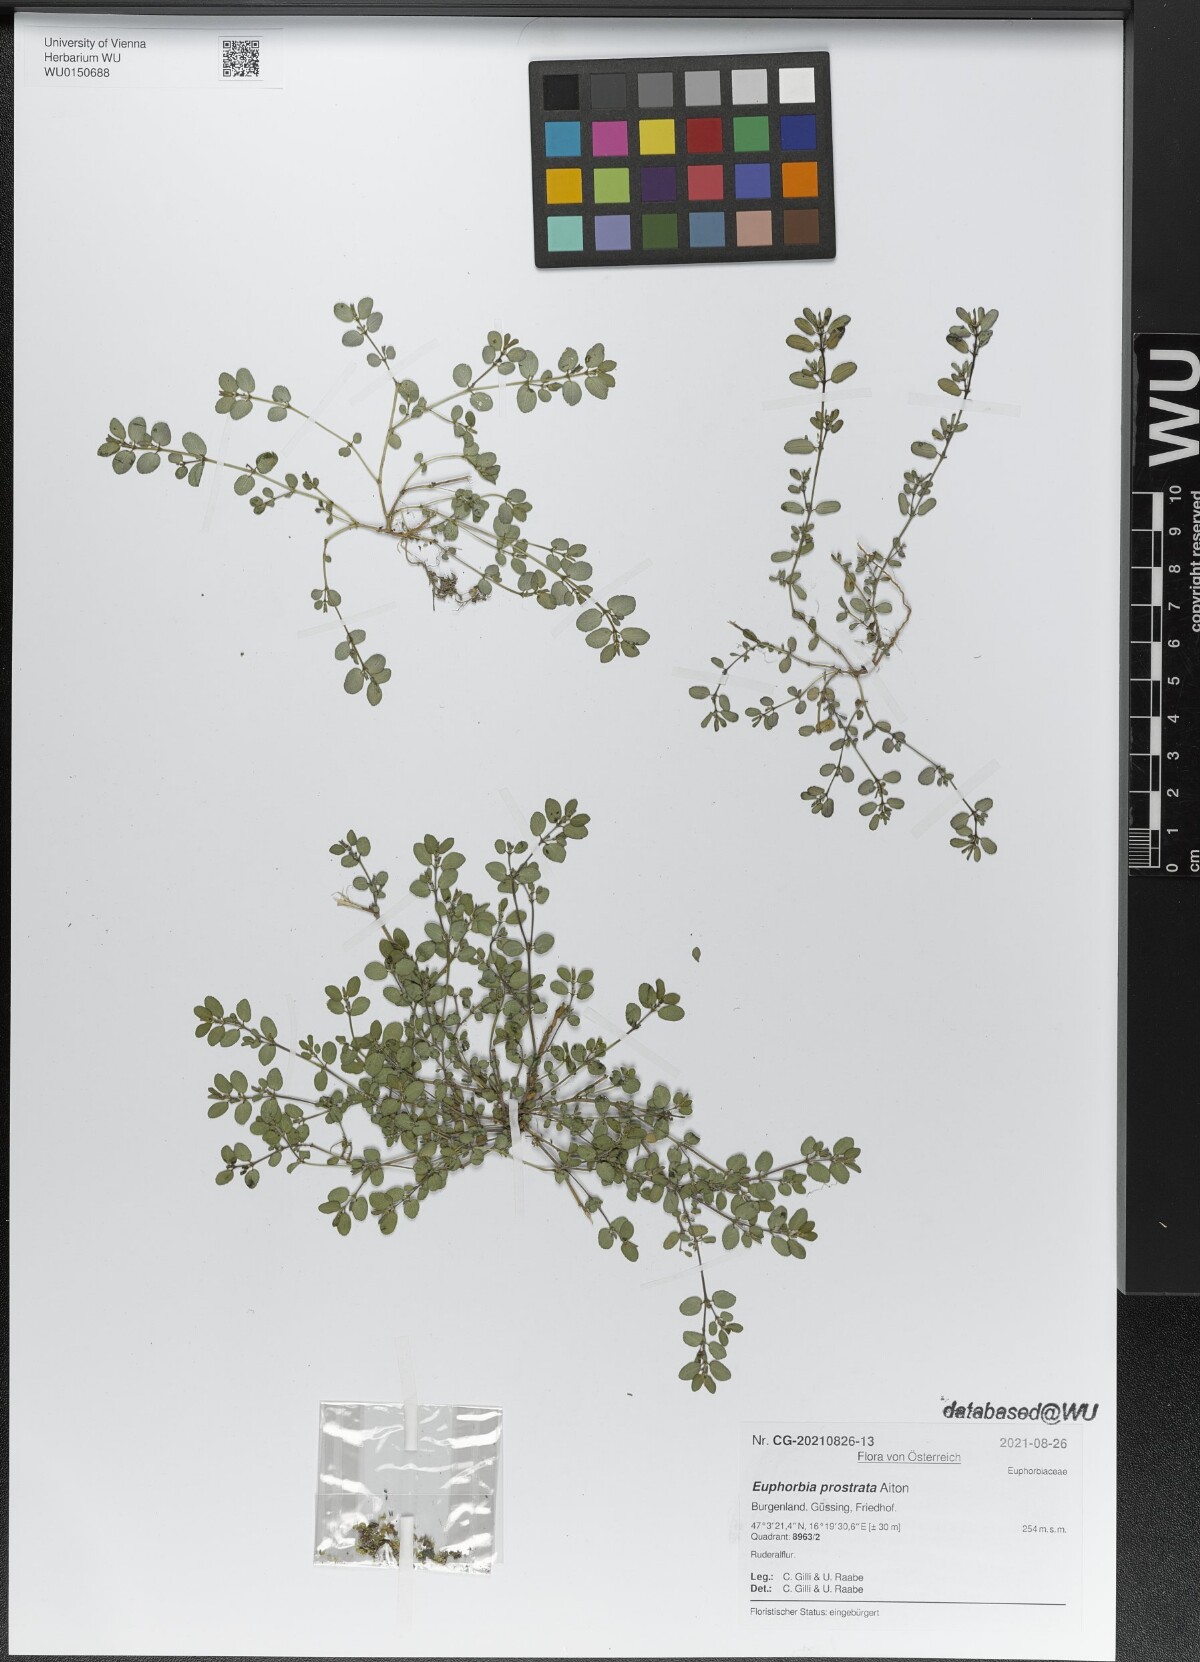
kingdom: Plantae
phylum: Tracheophyta
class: Magnoliopsida
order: Malpighiales
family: Euphorbiaceae
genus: Euphorbia
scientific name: Euphorbia prostrata
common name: Prostrate sandmat
